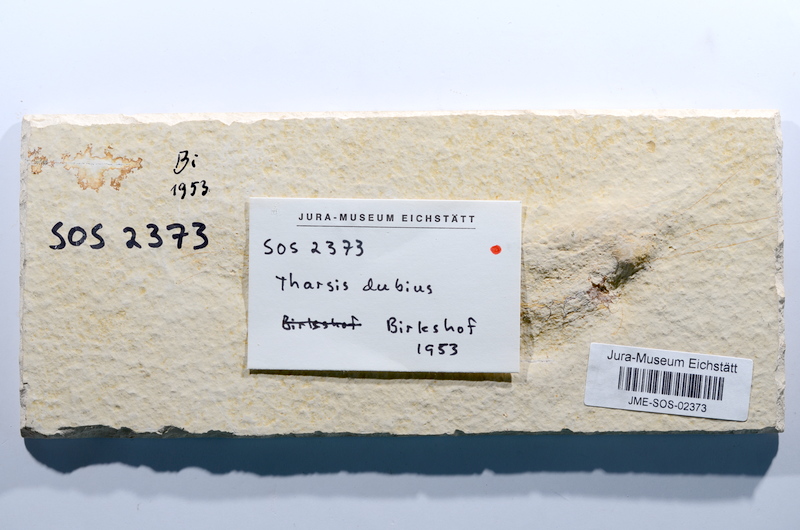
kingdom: Animalia
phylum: Chordata
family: Ascalaboidae
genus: Tharsis
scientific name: Tharsis dubius
